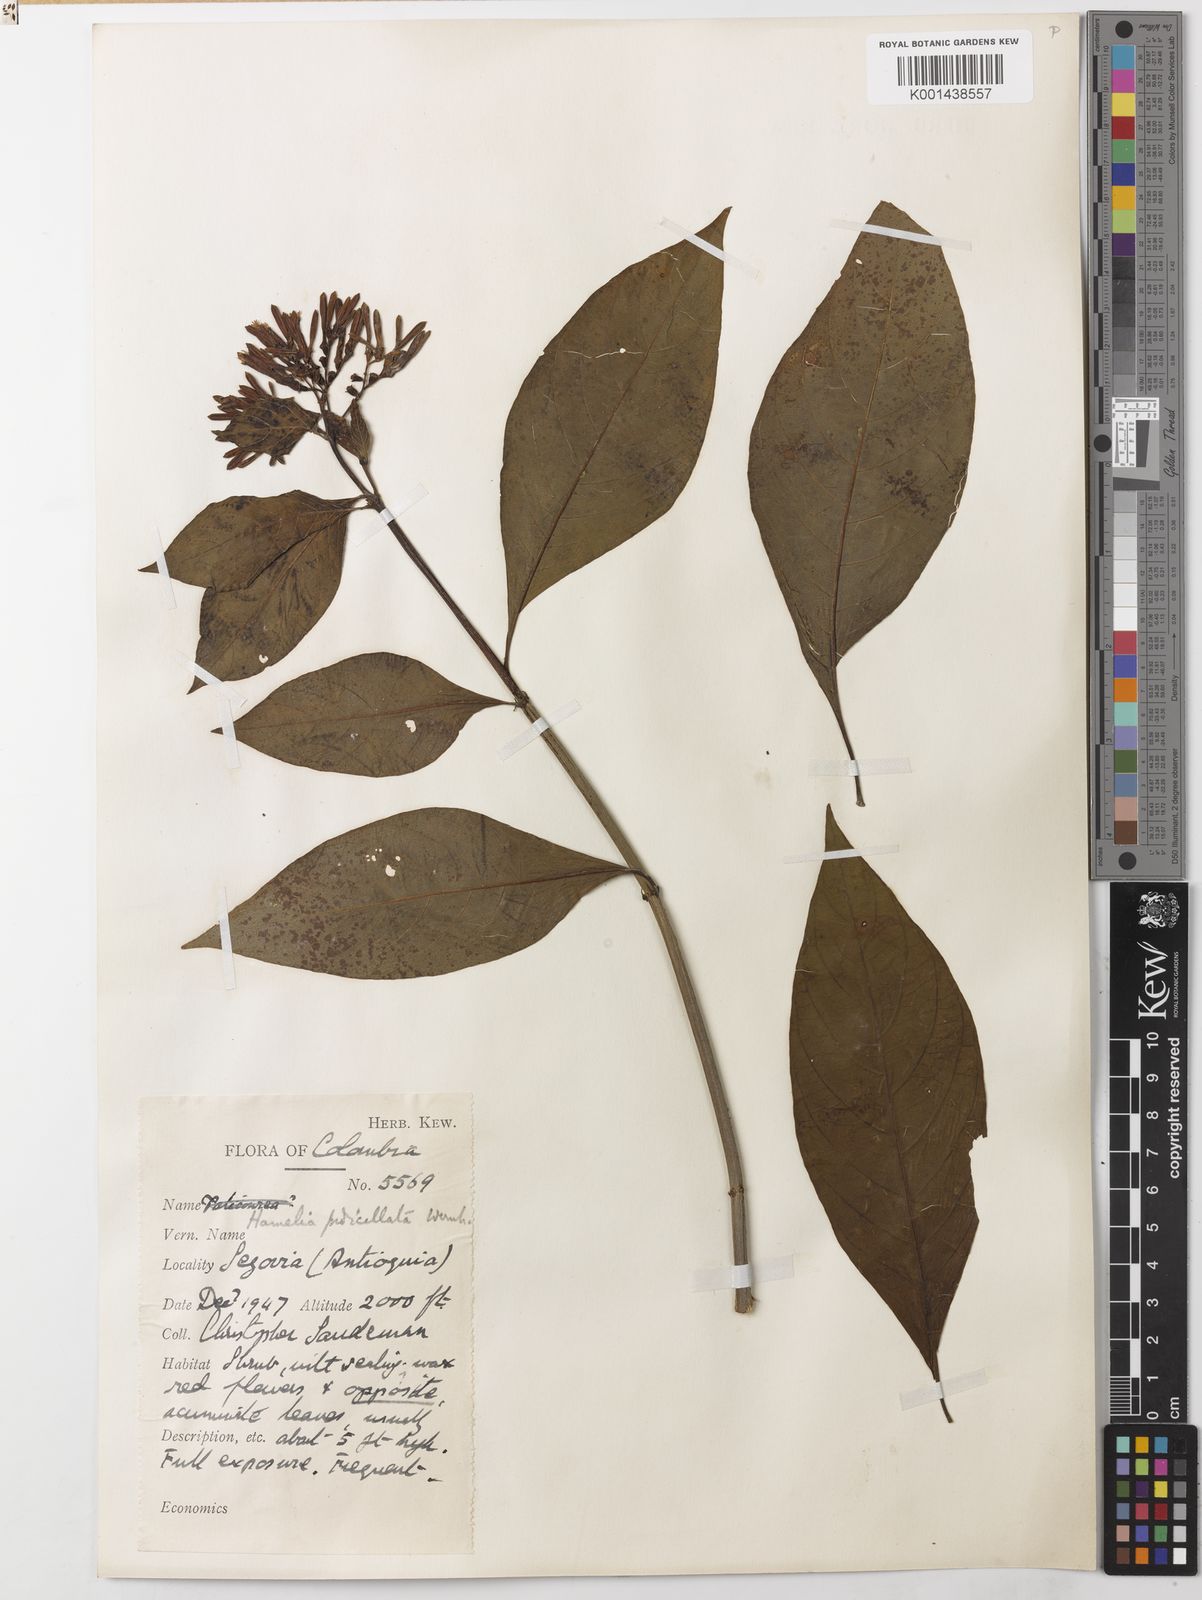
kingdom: Plantae
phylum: Tracheophyta
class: Magnoliopsida
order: Gentianales
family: Rubiaceae
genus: Hamelia
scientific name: Hamelia patens
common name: Redhead
